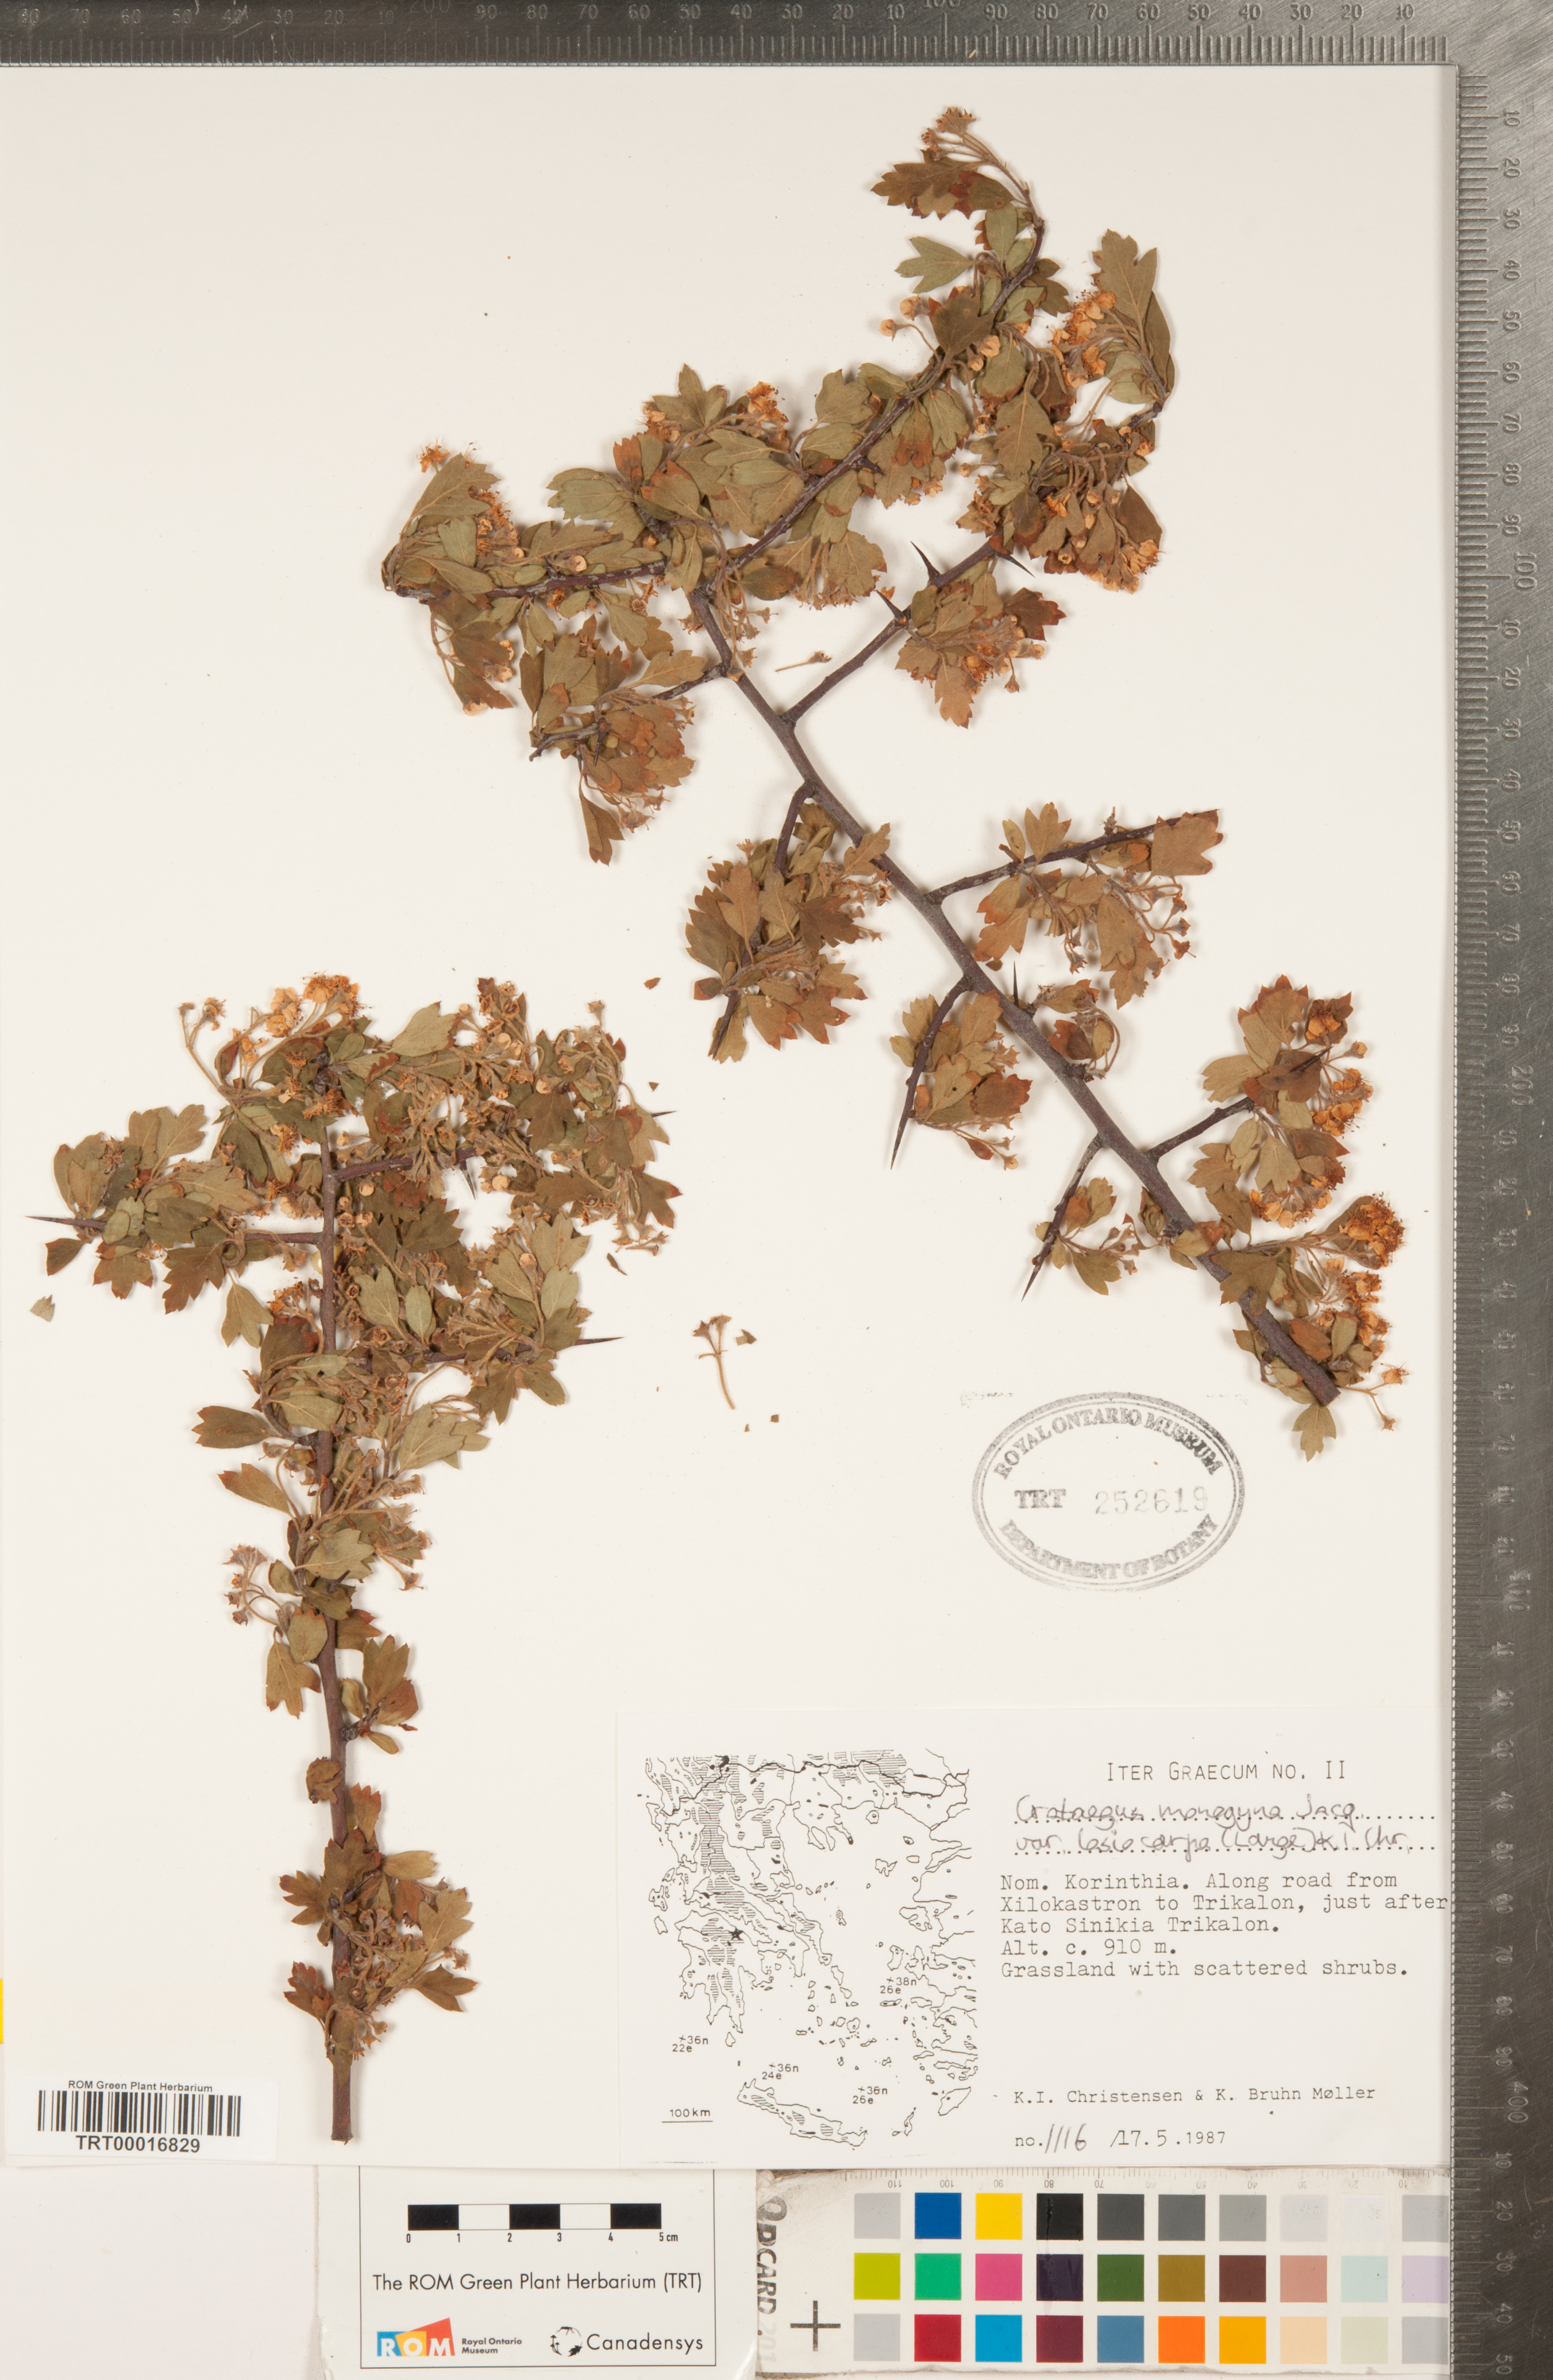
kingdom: Plantae
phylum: Tracheophyta
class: Magnoliopsida
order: Rosales
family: Rosaceae
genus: Crataegus
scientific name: Crataegus laciniata
